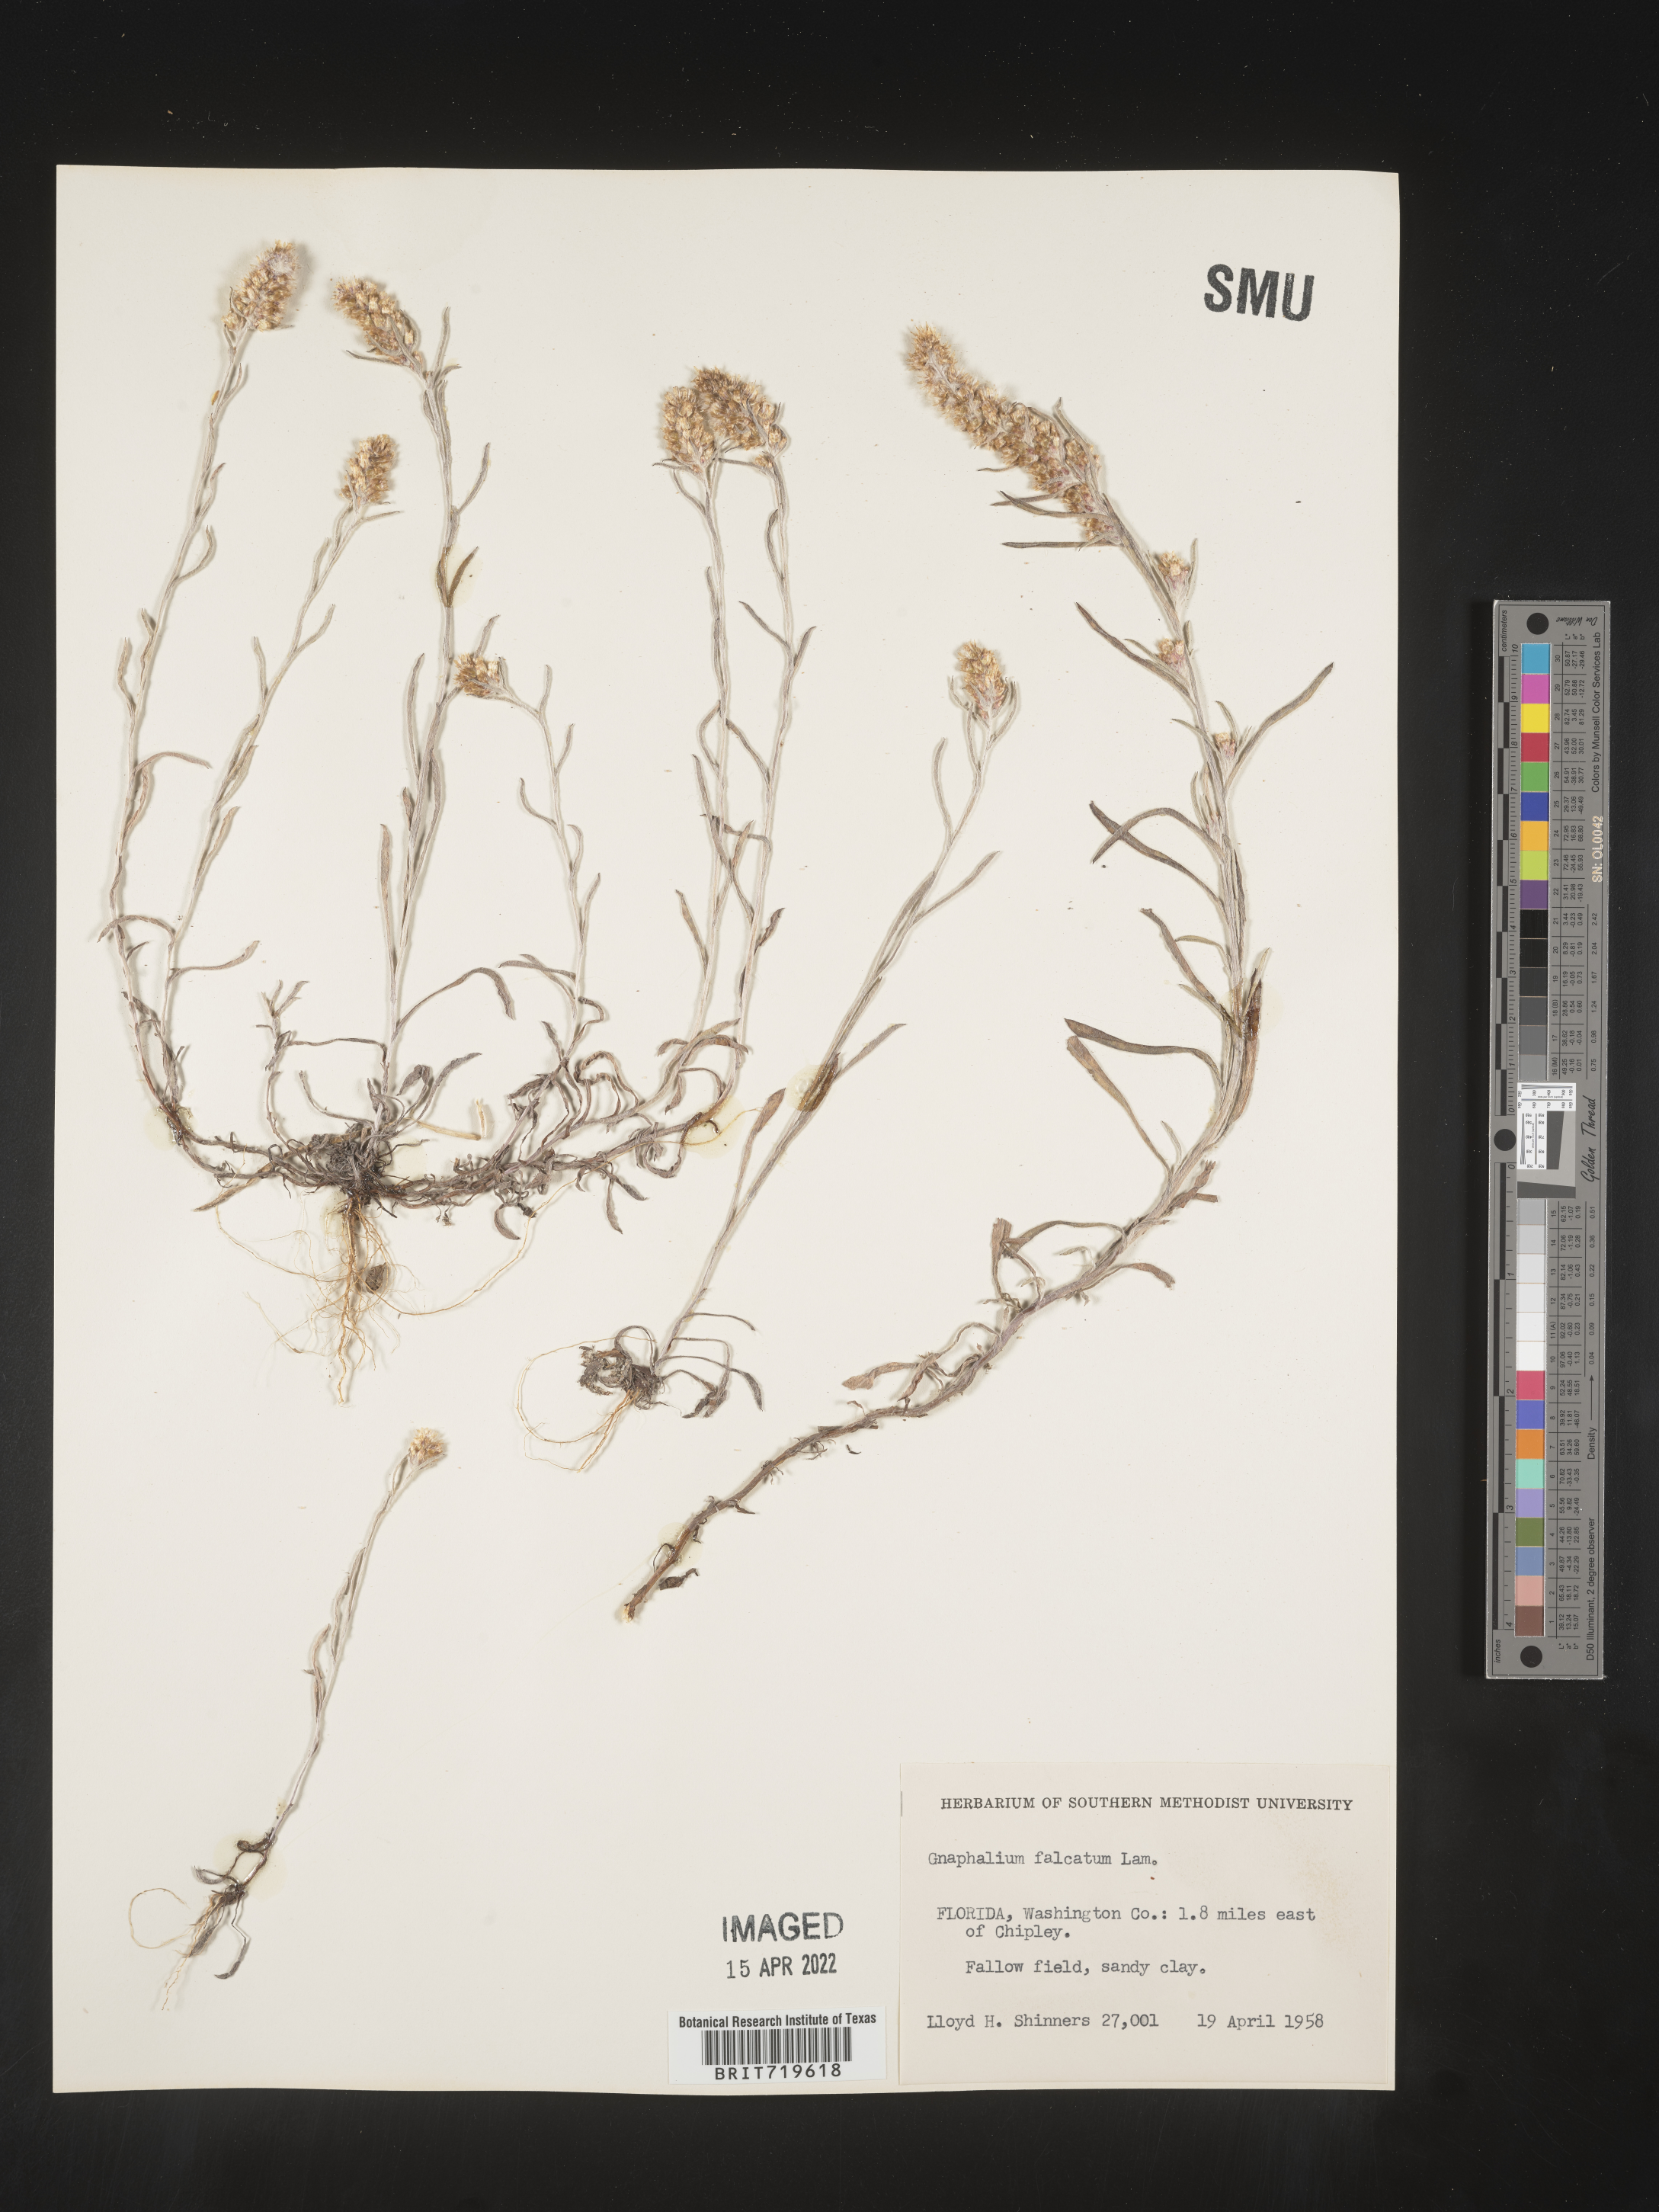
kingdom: Plantae
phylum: Tracheophyta
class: Magnoliopsida
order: Asterales
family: Asteraceae
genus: Gamochaeta
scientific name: Gamochaeta antillana
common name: Delicate everlasting
